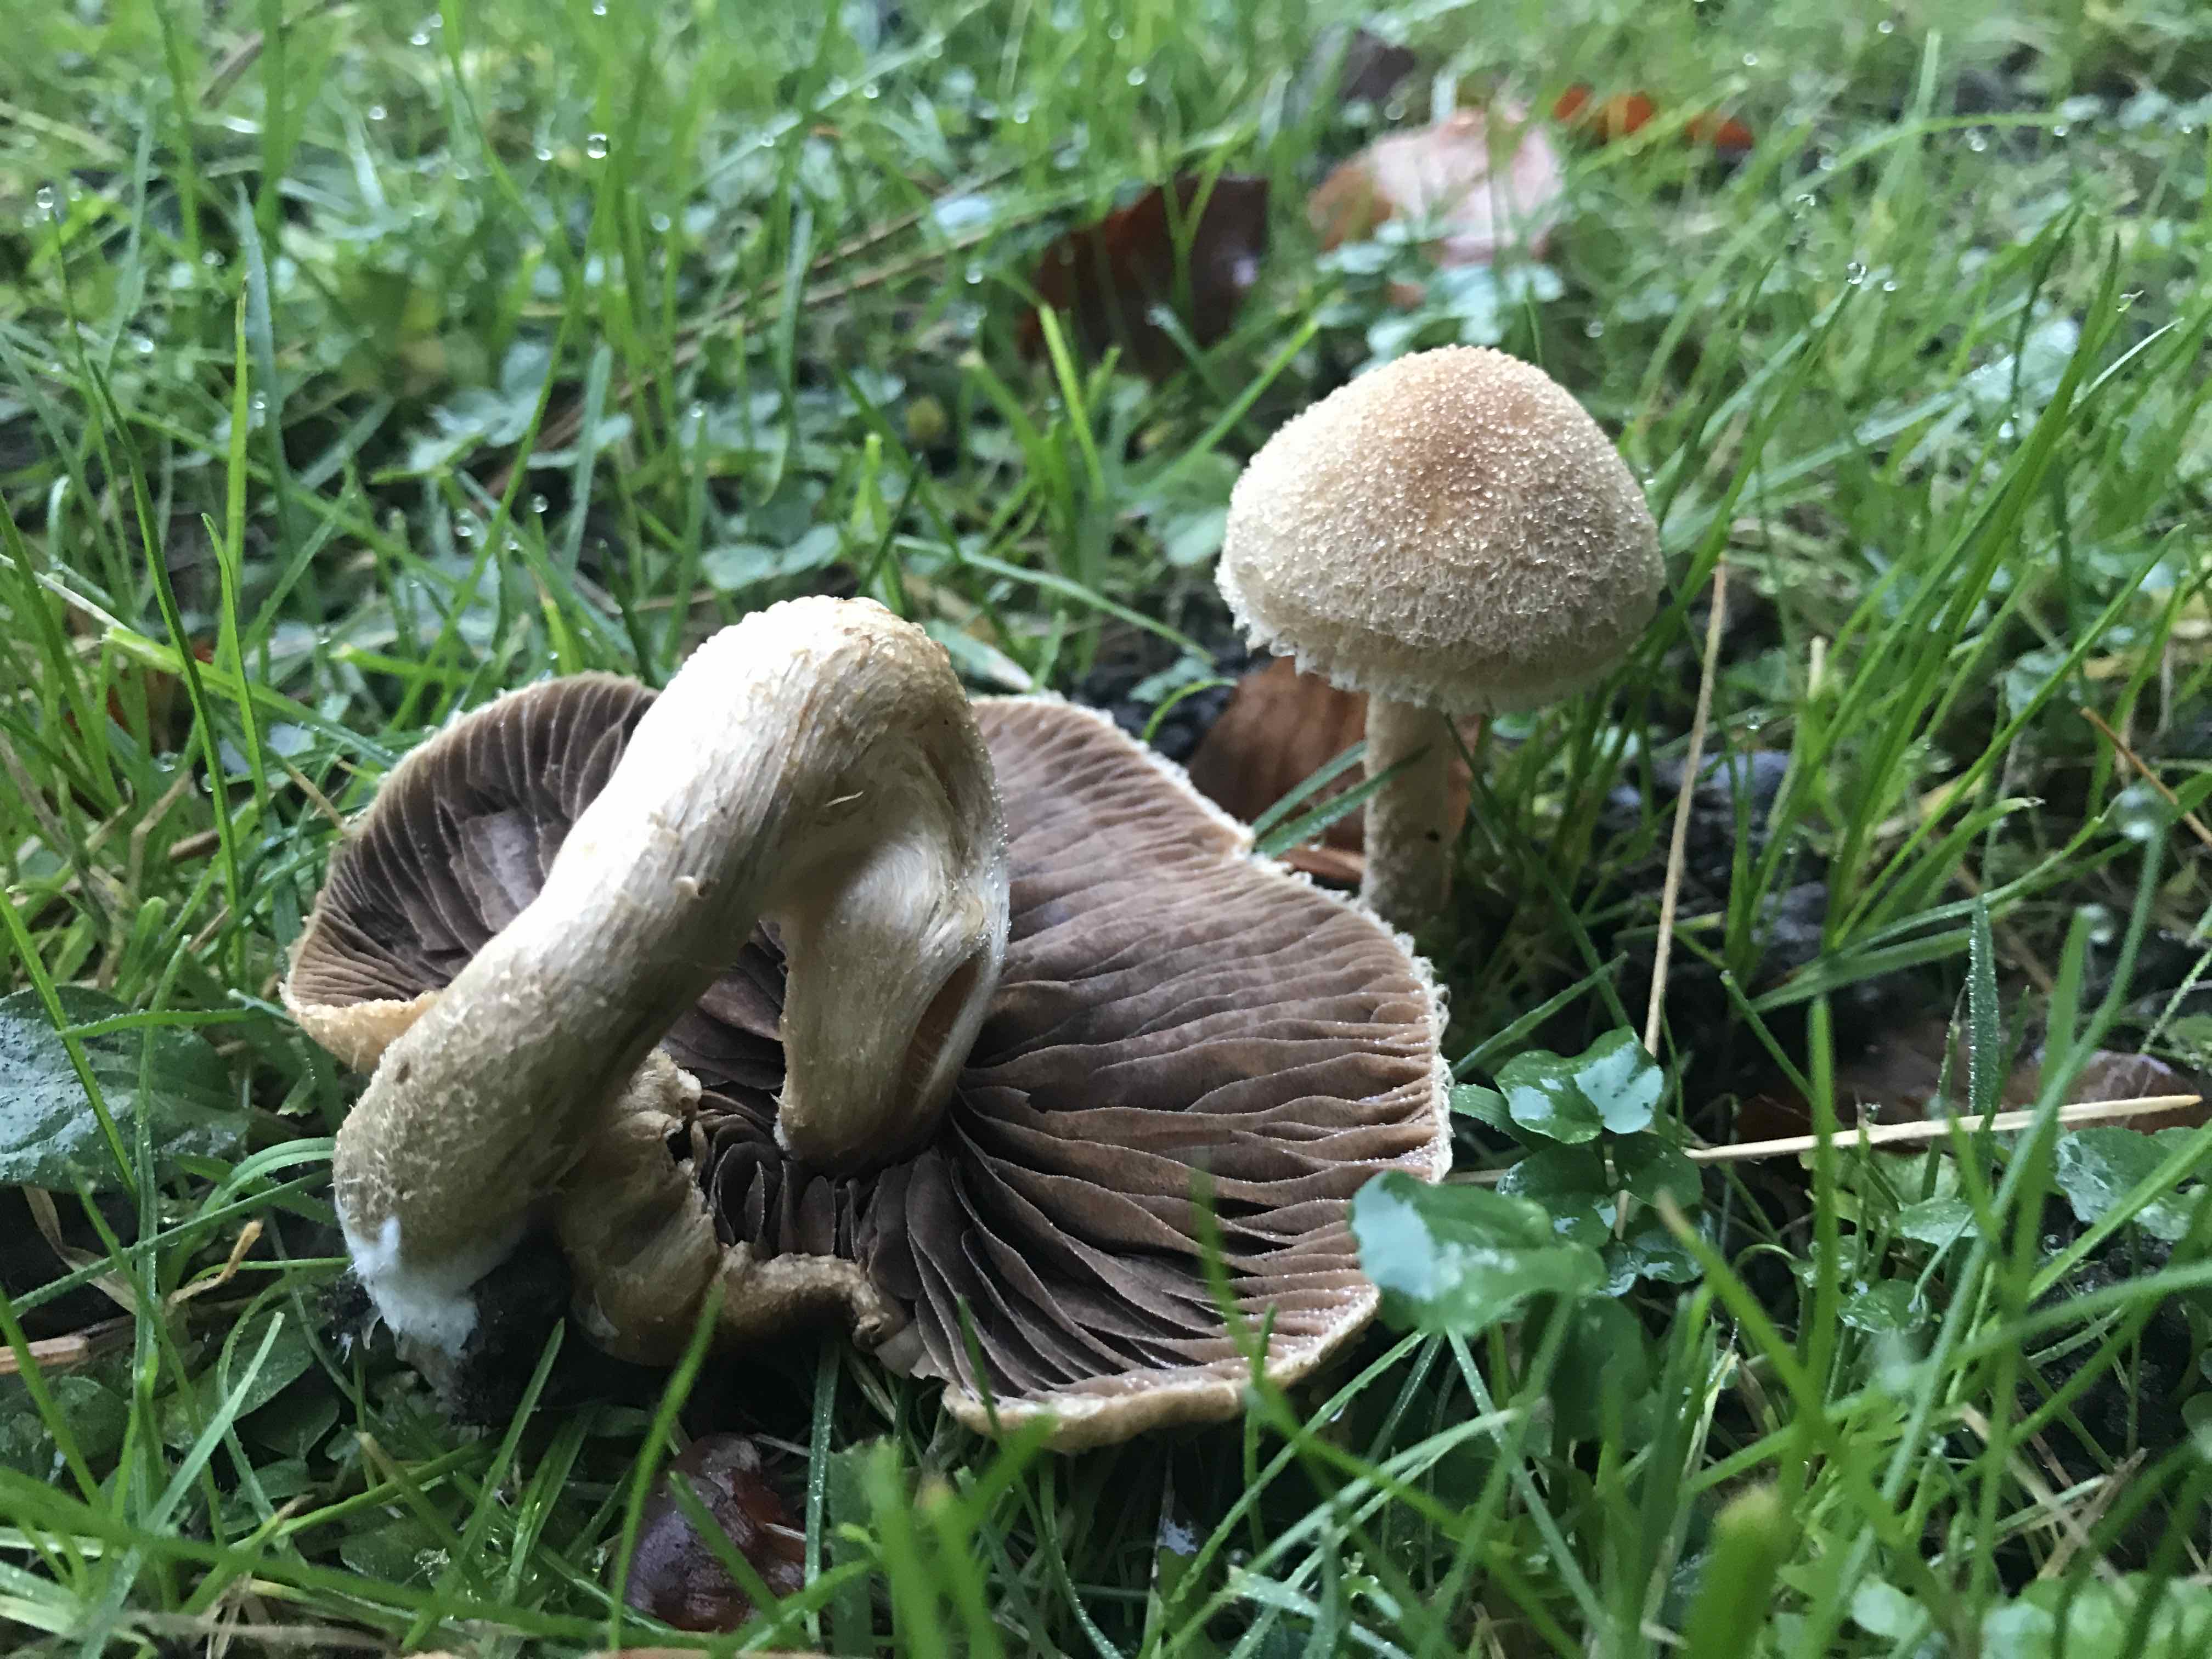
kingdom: Fungi
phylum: Basidiomycota
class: Agaricomycetes
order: Agaricales
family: Psathyrellaceae
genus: Lacrymaria
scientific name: Lacrymaria lacrymabunda
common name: grædende mørkhat
